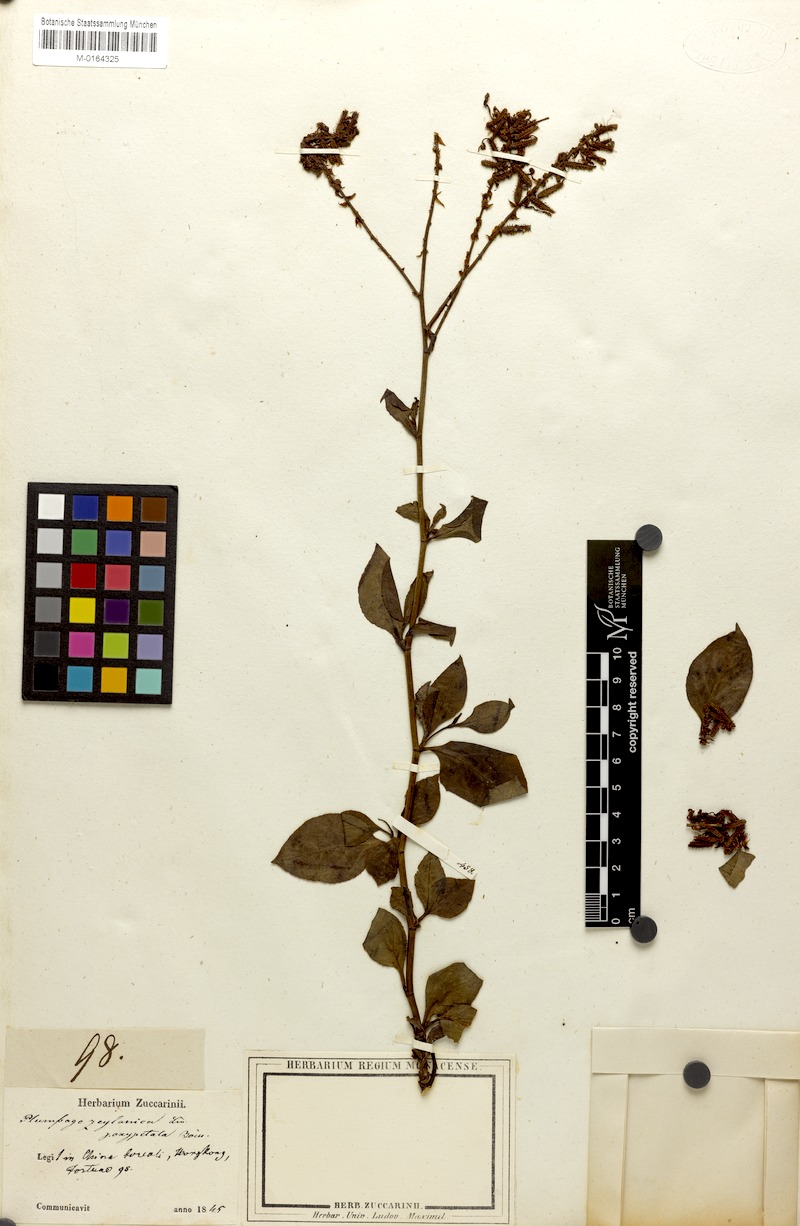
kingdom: Plantae
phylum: Tracheophyta
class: Magnoliopsida
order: Caryophyllales
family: Plumbaginaceae
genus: Plumbago
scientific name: Plumbago zeylanica
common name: Doctorbush
